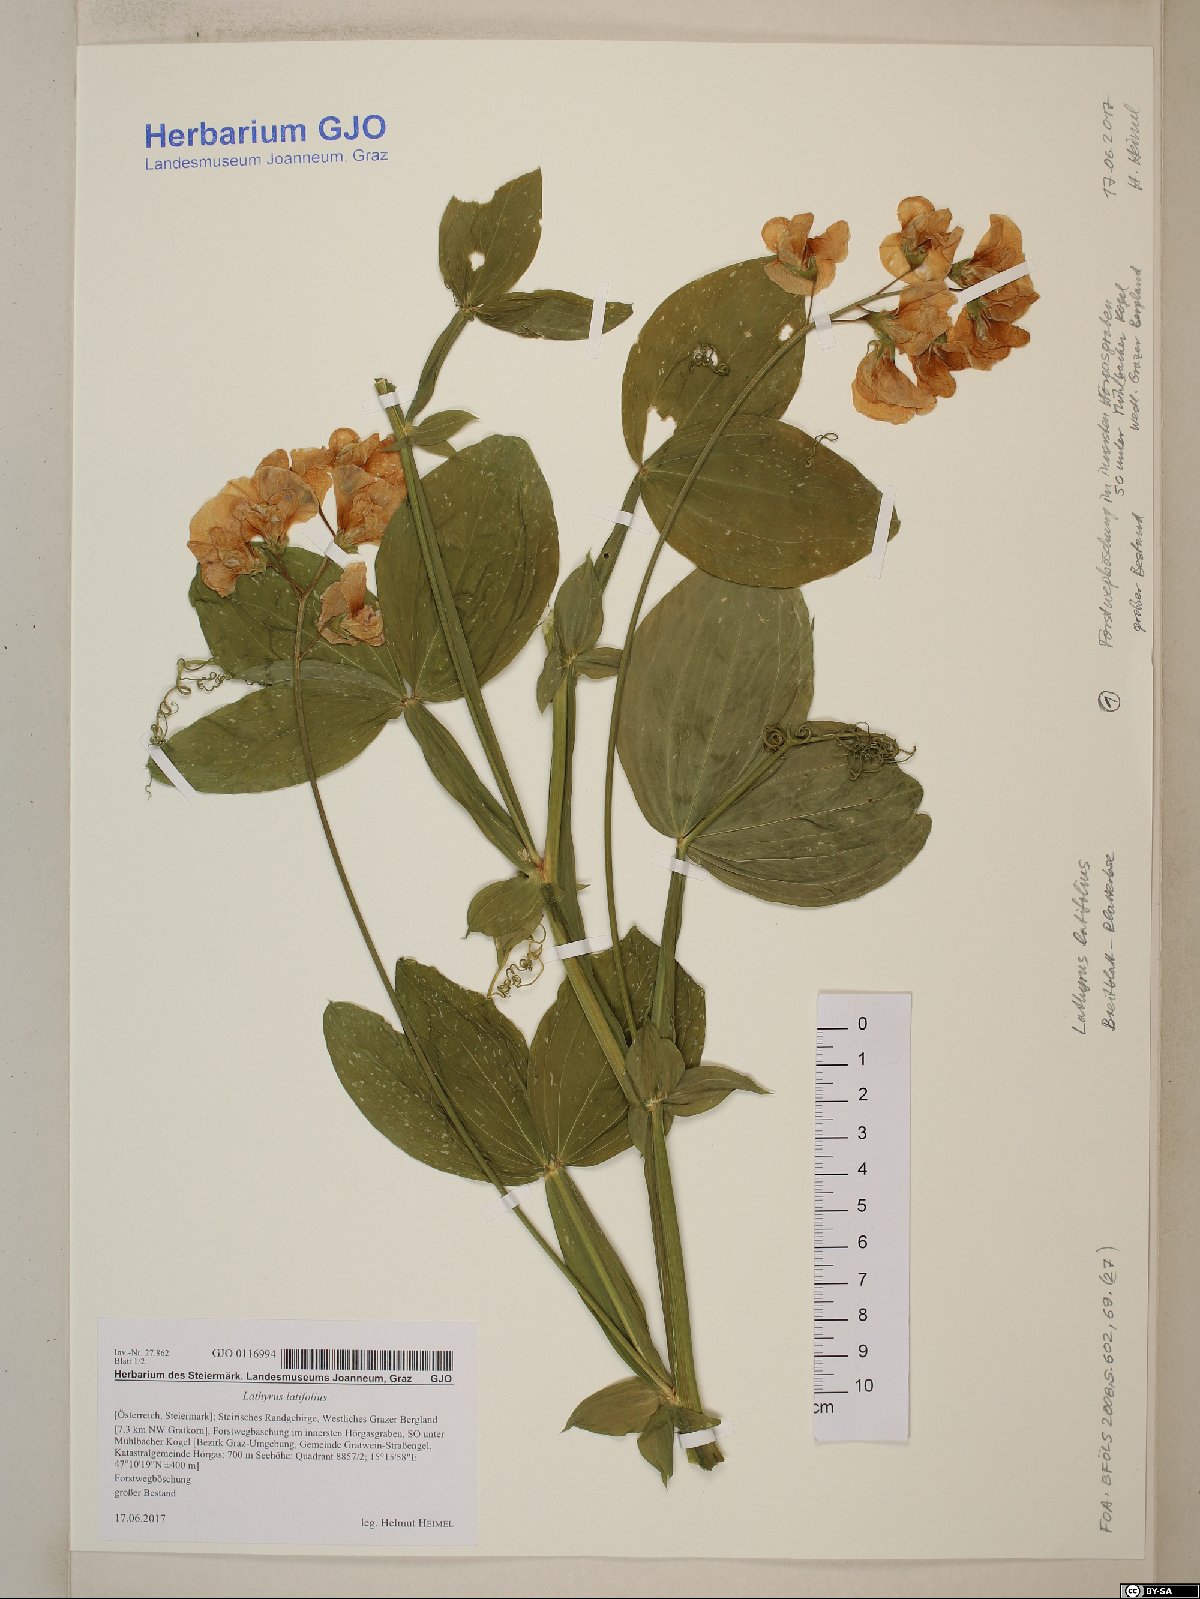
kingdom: Plantae
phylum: Tracheophyta
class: Magnoliopsida
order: Fabales
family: Fabaceae
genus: Lathyrus
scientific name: Lathyrus latifolius
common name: Perennial pea
